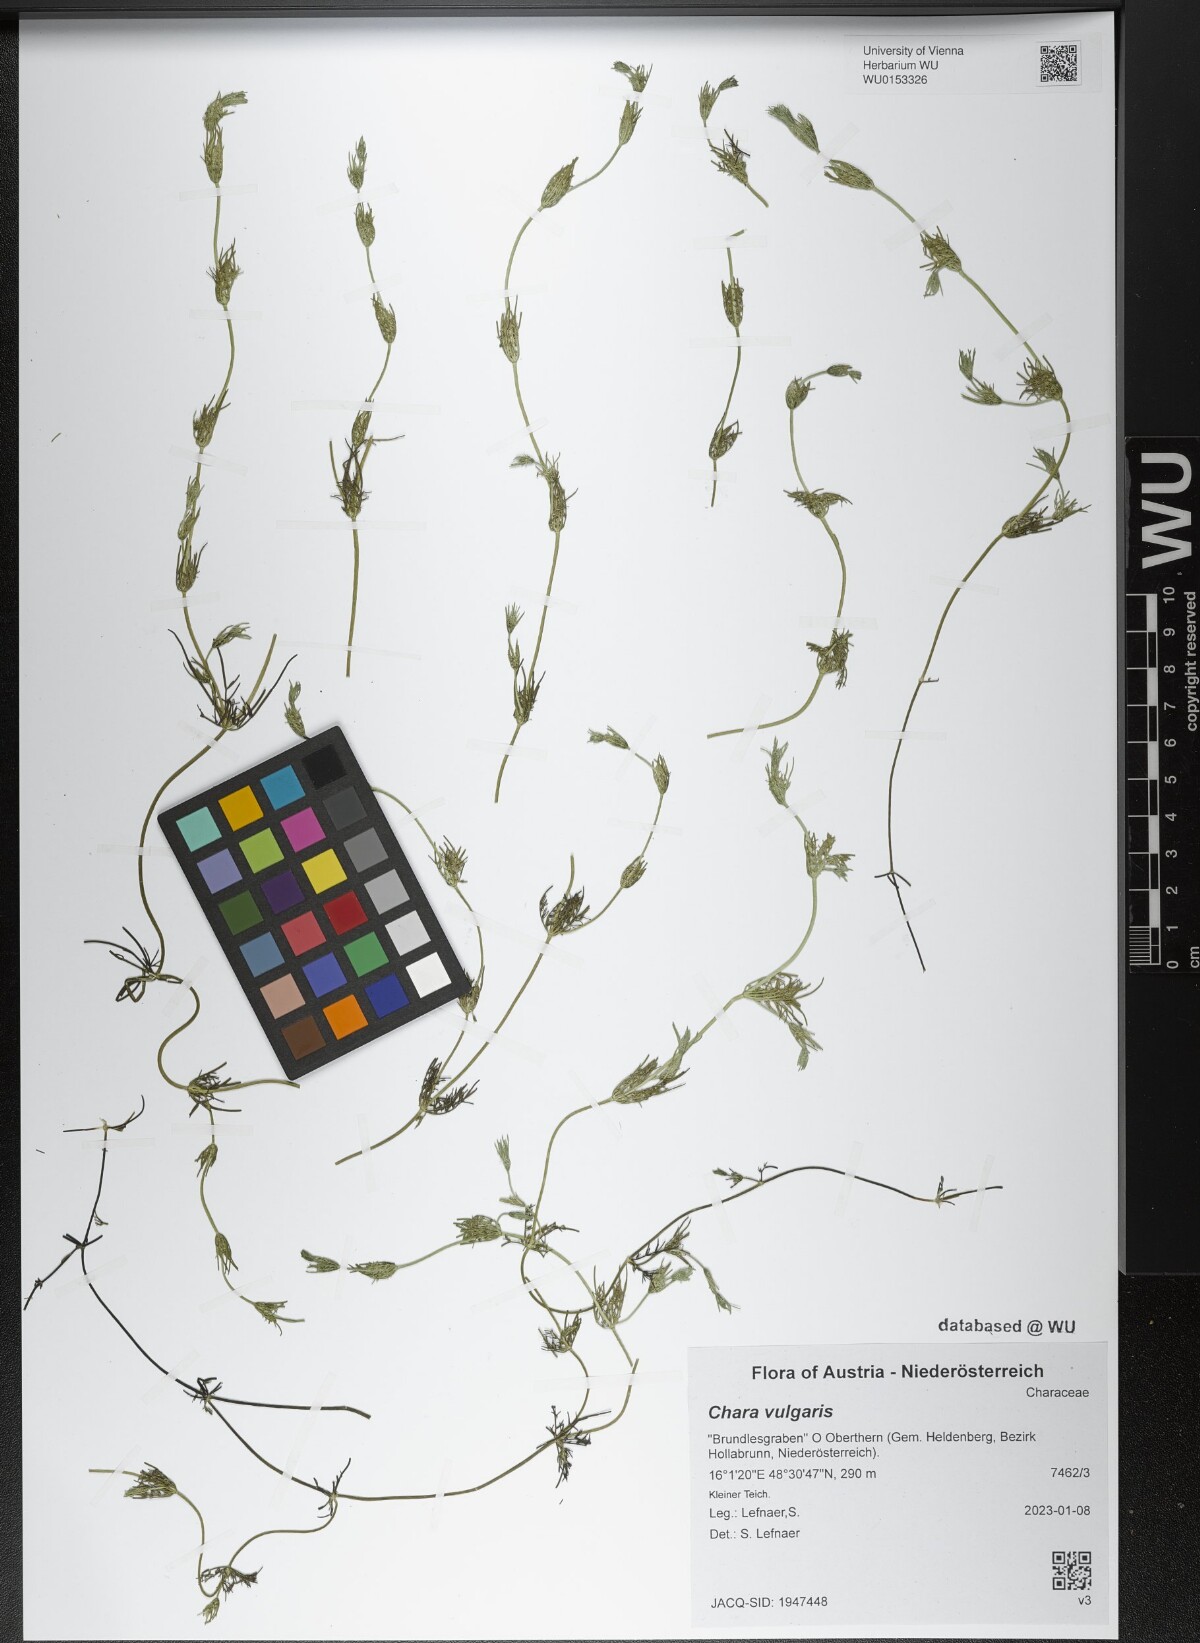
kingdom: Plantae
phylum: Charophyta
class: Charophyceae
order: Charales
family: Characeae
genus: Chara
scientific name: Chara vulgaris
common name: Common stonewort
